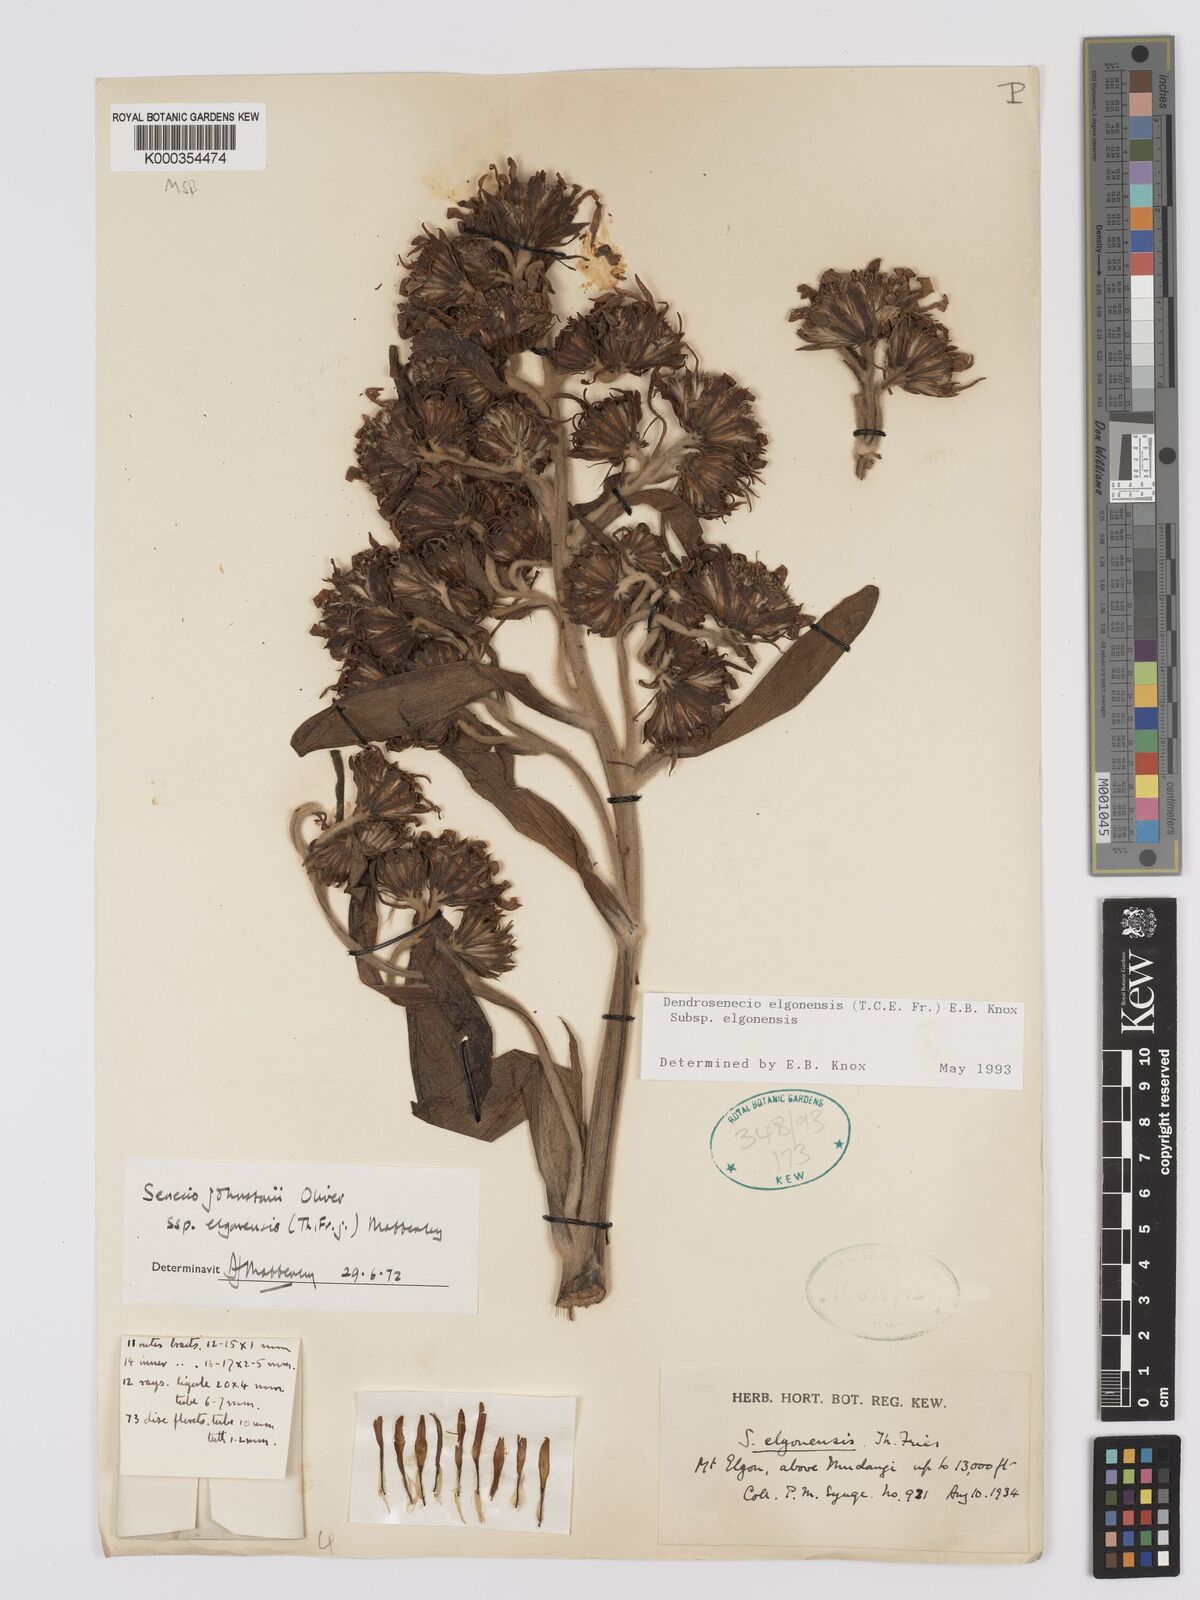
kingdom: Plantae
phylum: Tracheophyta
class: Magnoliopsida
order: Asterales
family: Asteraceae
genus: Dendrosenecio
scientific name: Dendrosenecio elgonensis
